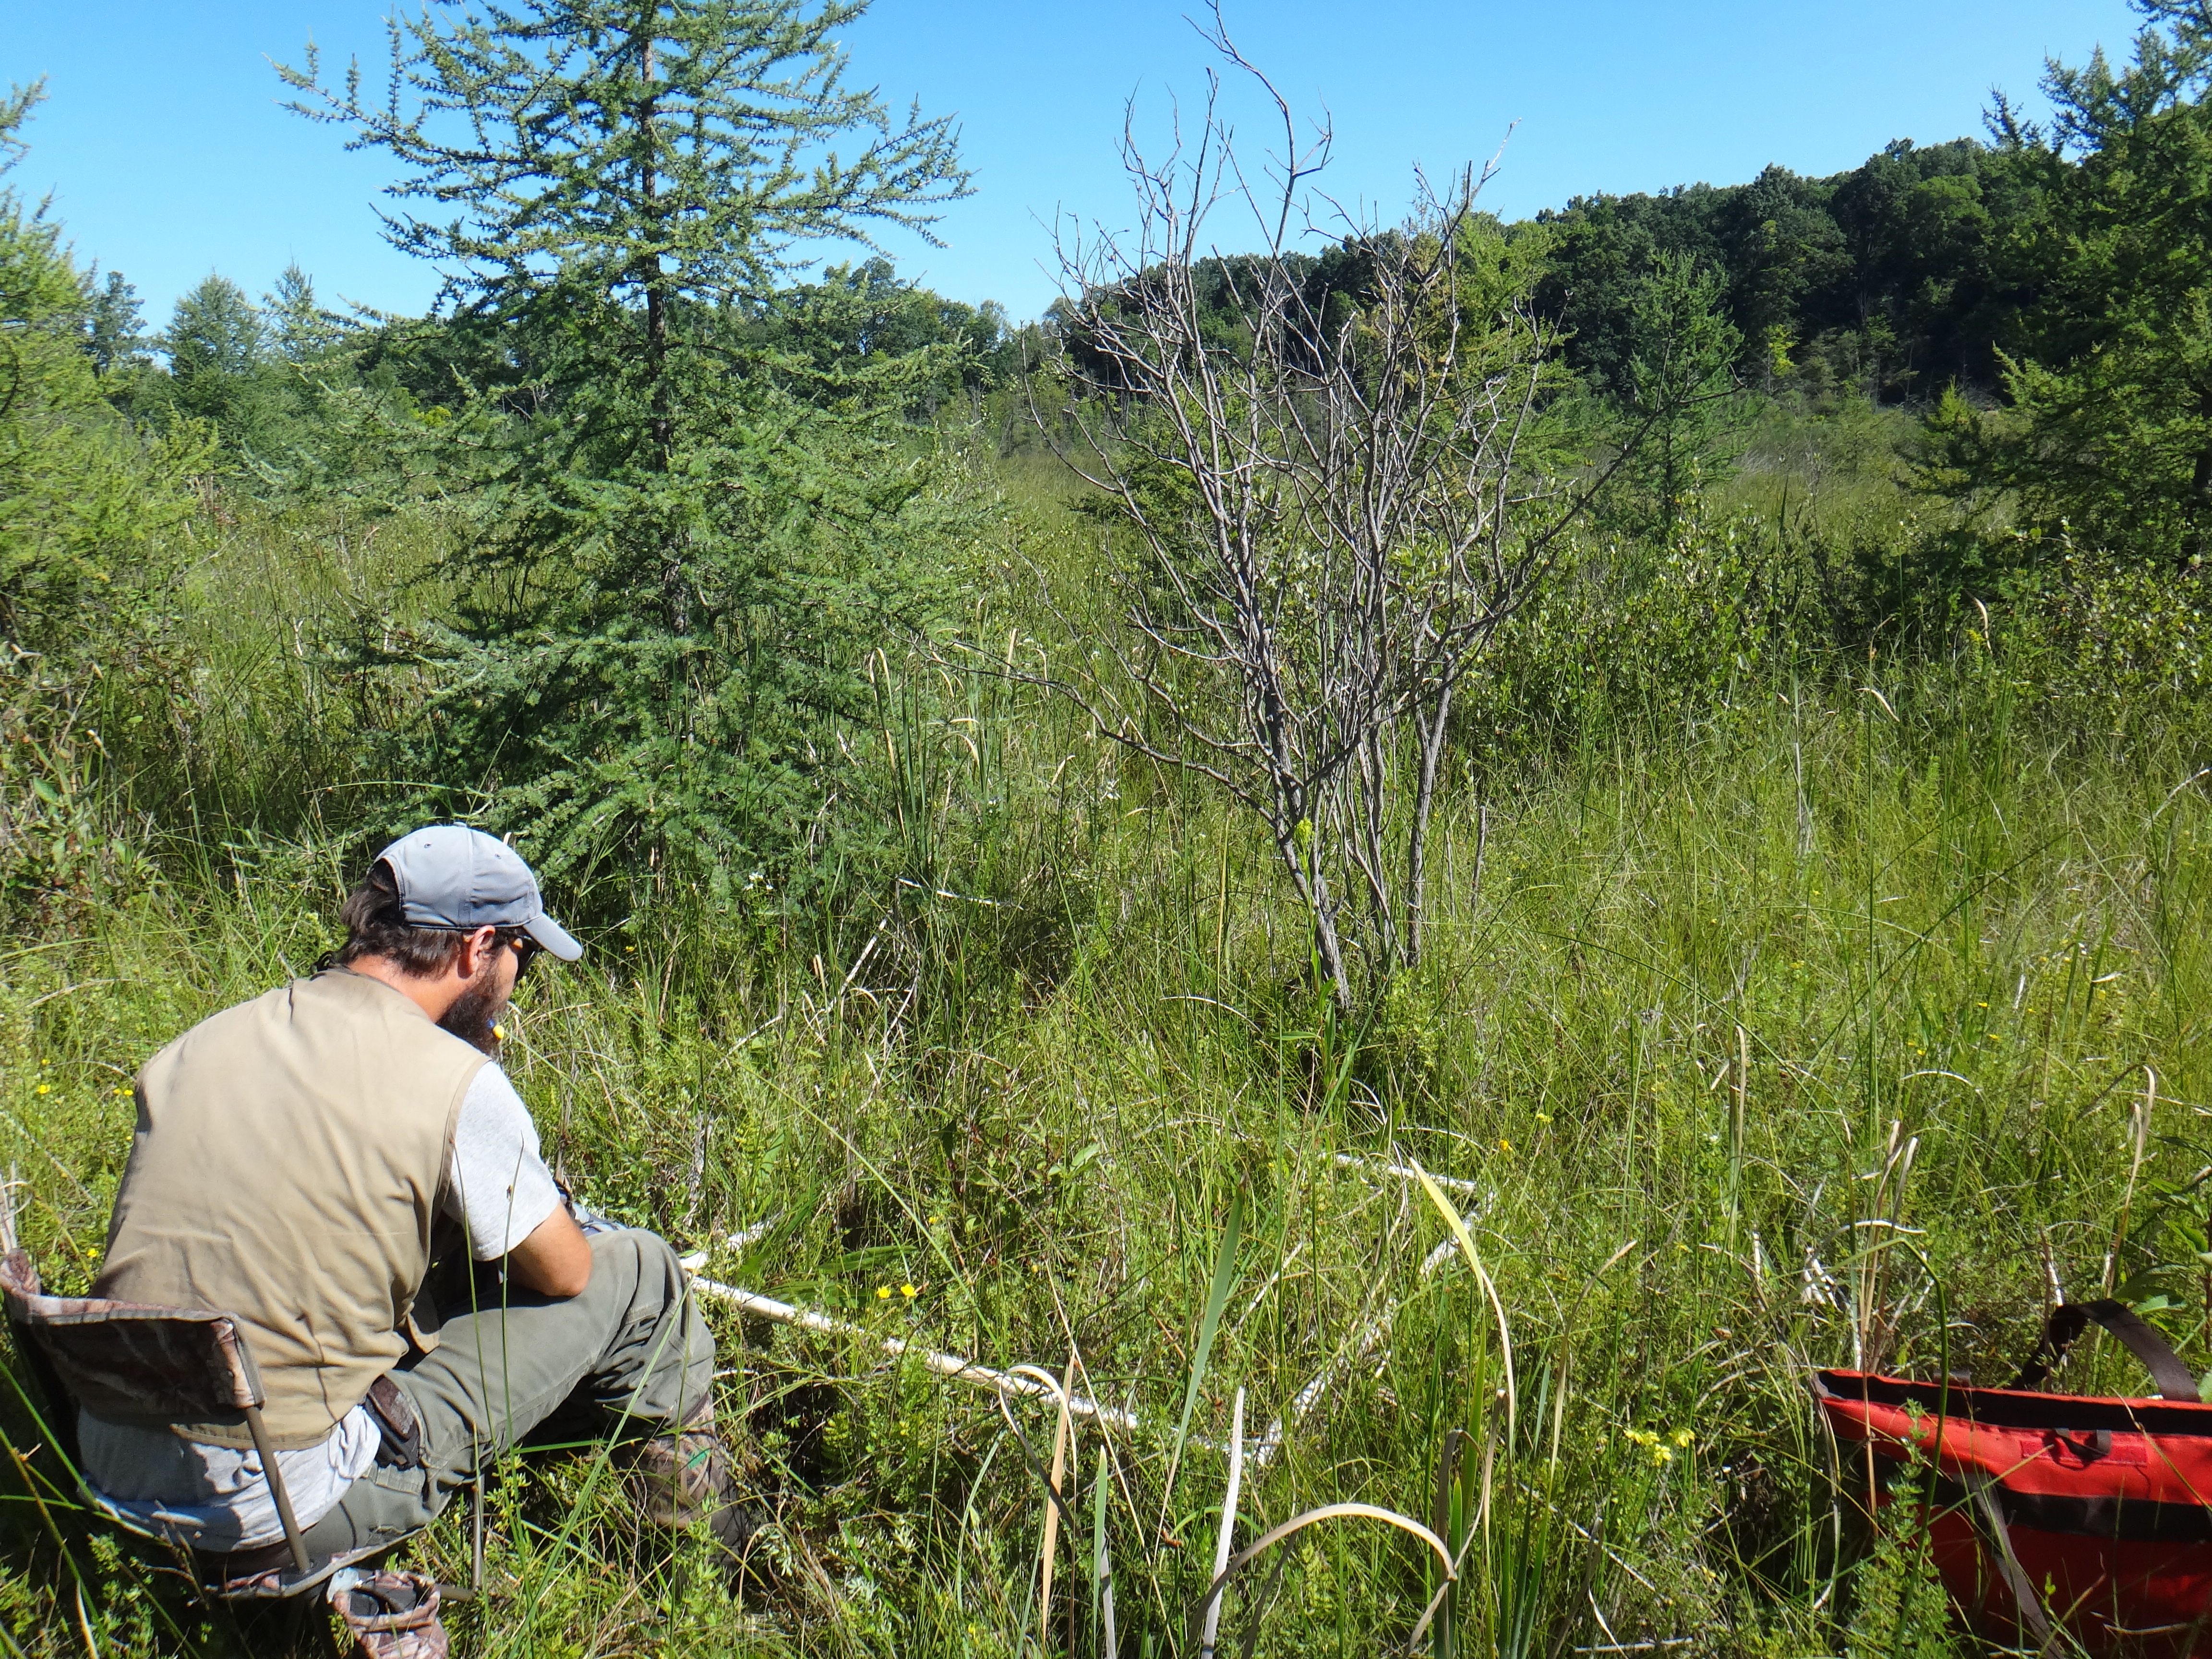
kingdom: Plantae
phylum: Tracheophyta
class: Magnoliopsida
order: Asterales
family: Asteraceae
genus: Rudbeckia
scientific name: Rudbeckia hirta
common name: Black-eyed-susan
